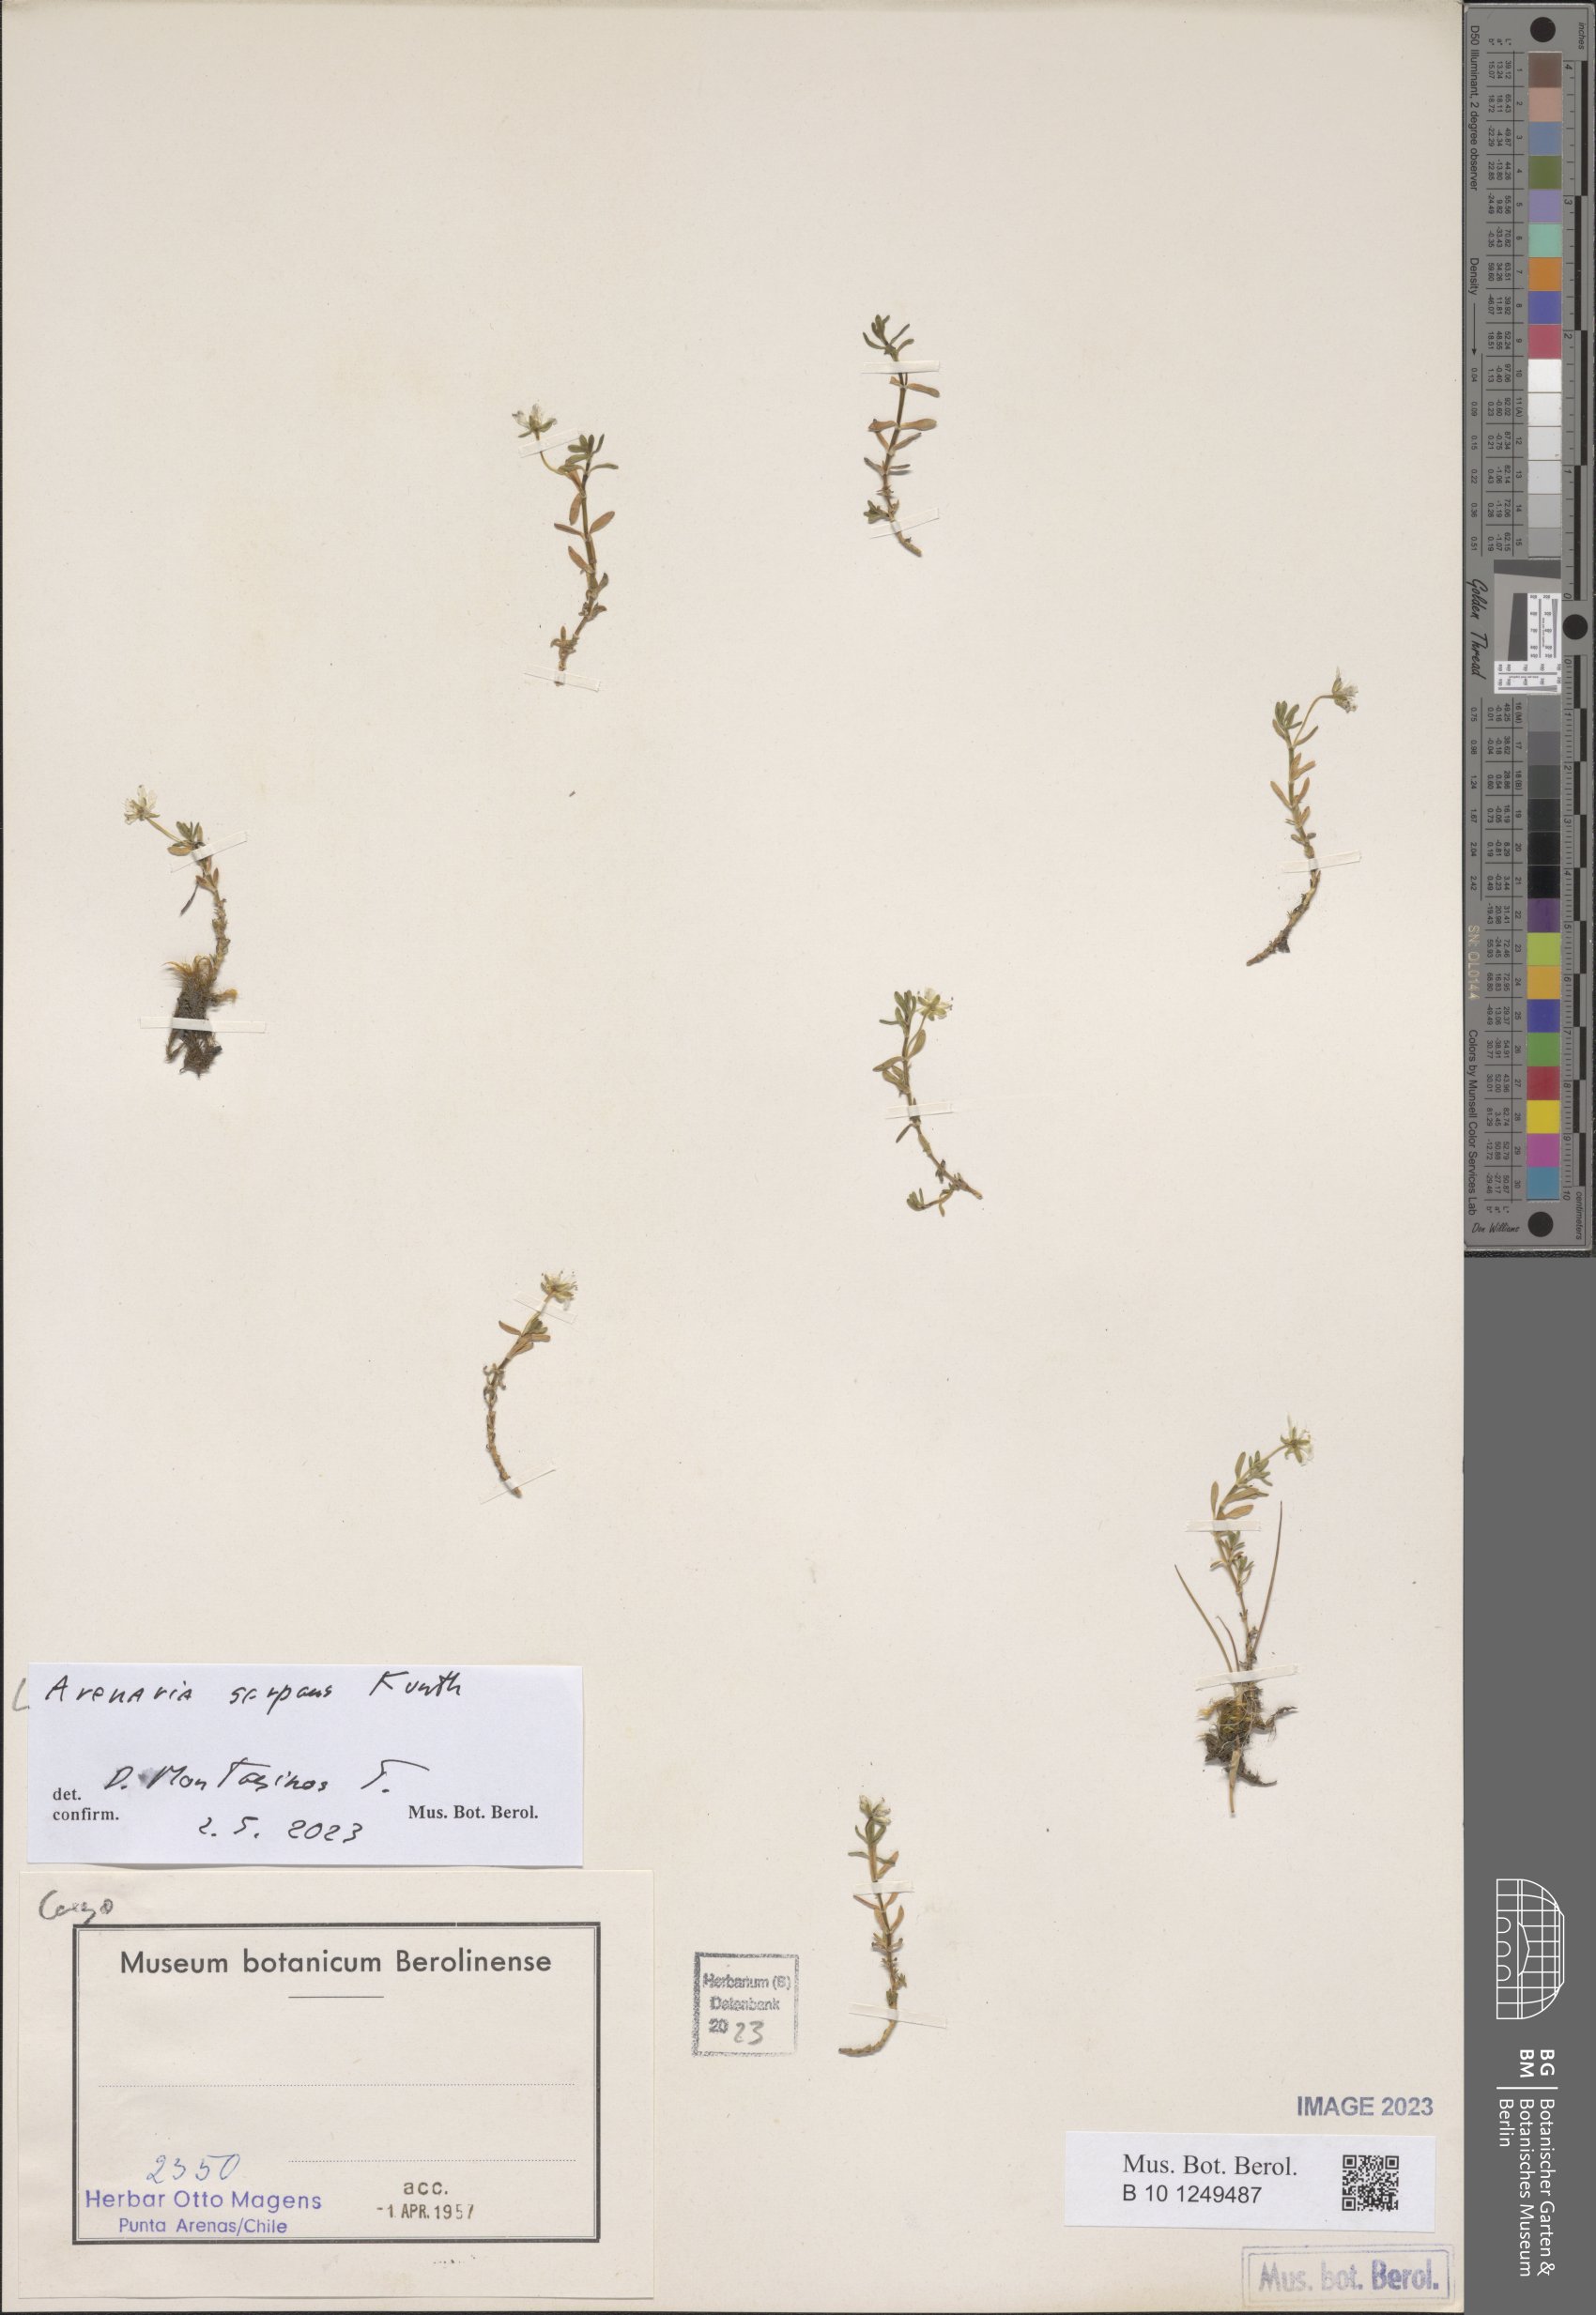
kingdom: Plantae
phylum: Tracheophyta
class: Magnoliopsida
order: Caryophyllales
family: Caryophyllaceae
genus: Arenaria
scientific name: Arenaria serpens
